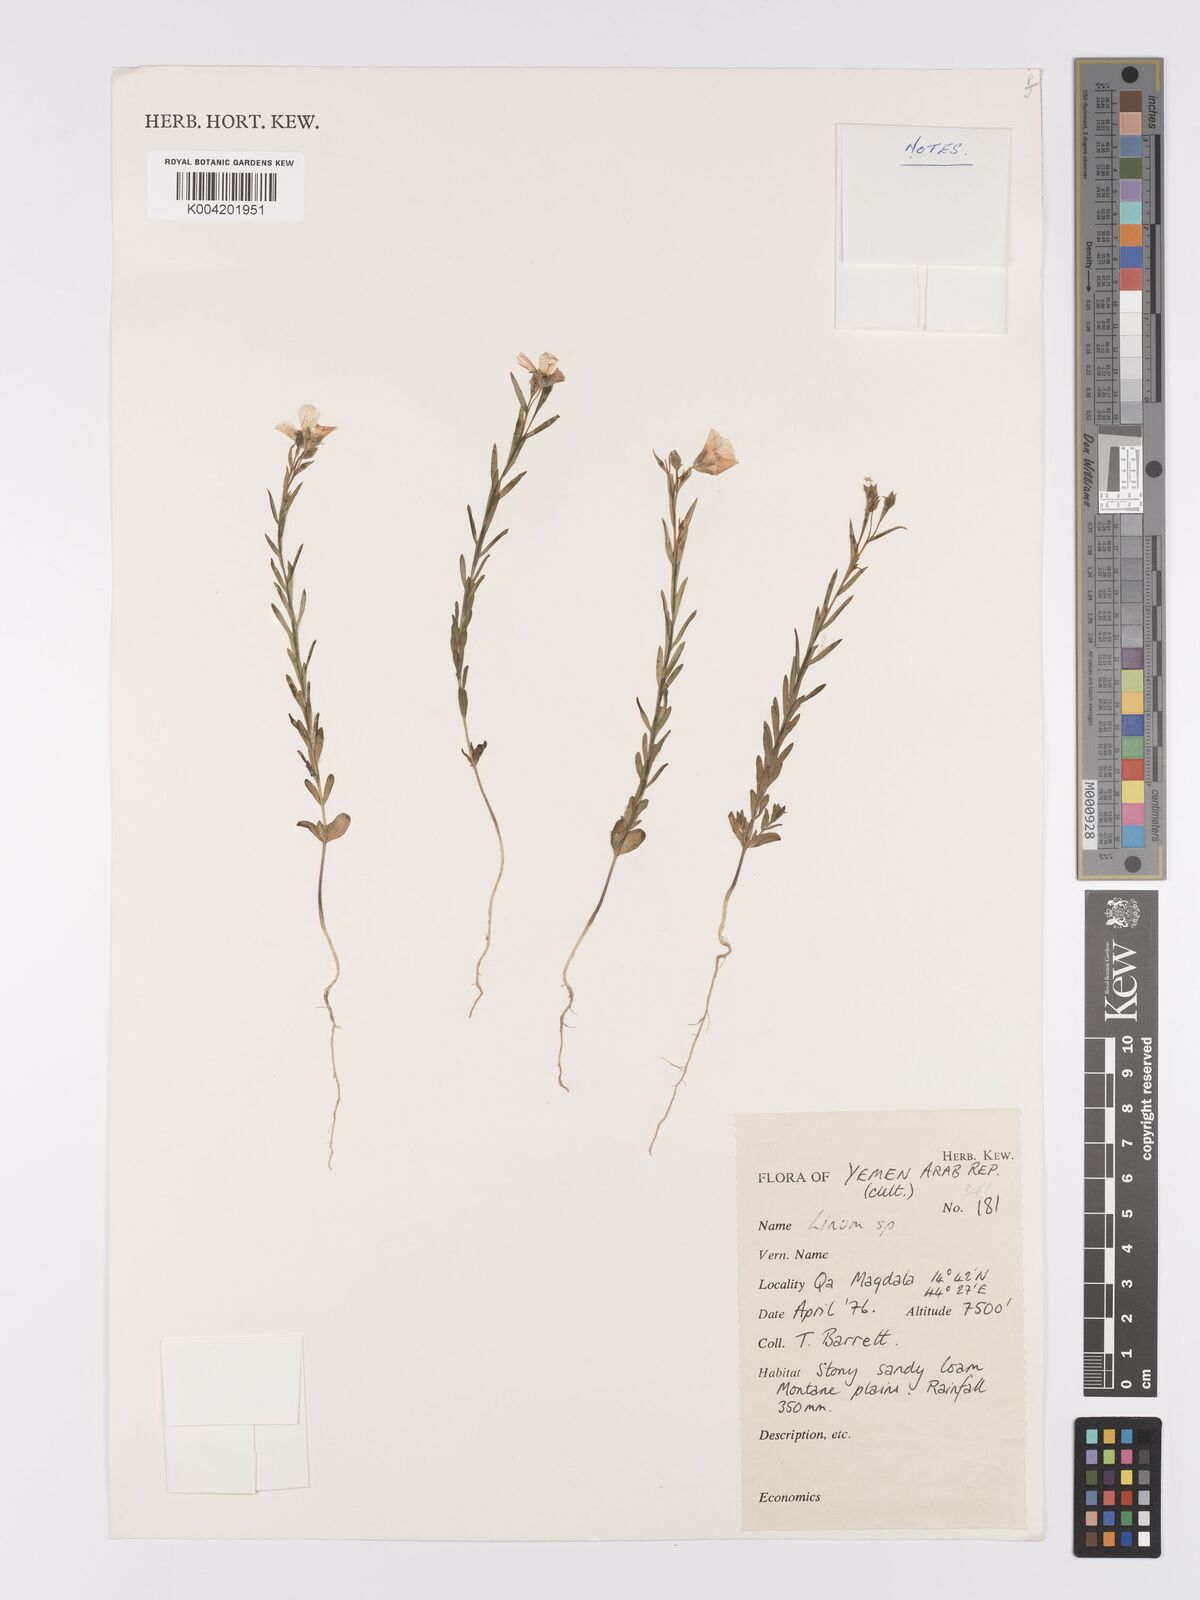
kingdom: Plantae
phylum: Tracheophyta
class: Magnoliopsida
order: Malpighiales
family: Linaceae
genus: Linum
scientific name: Linum
